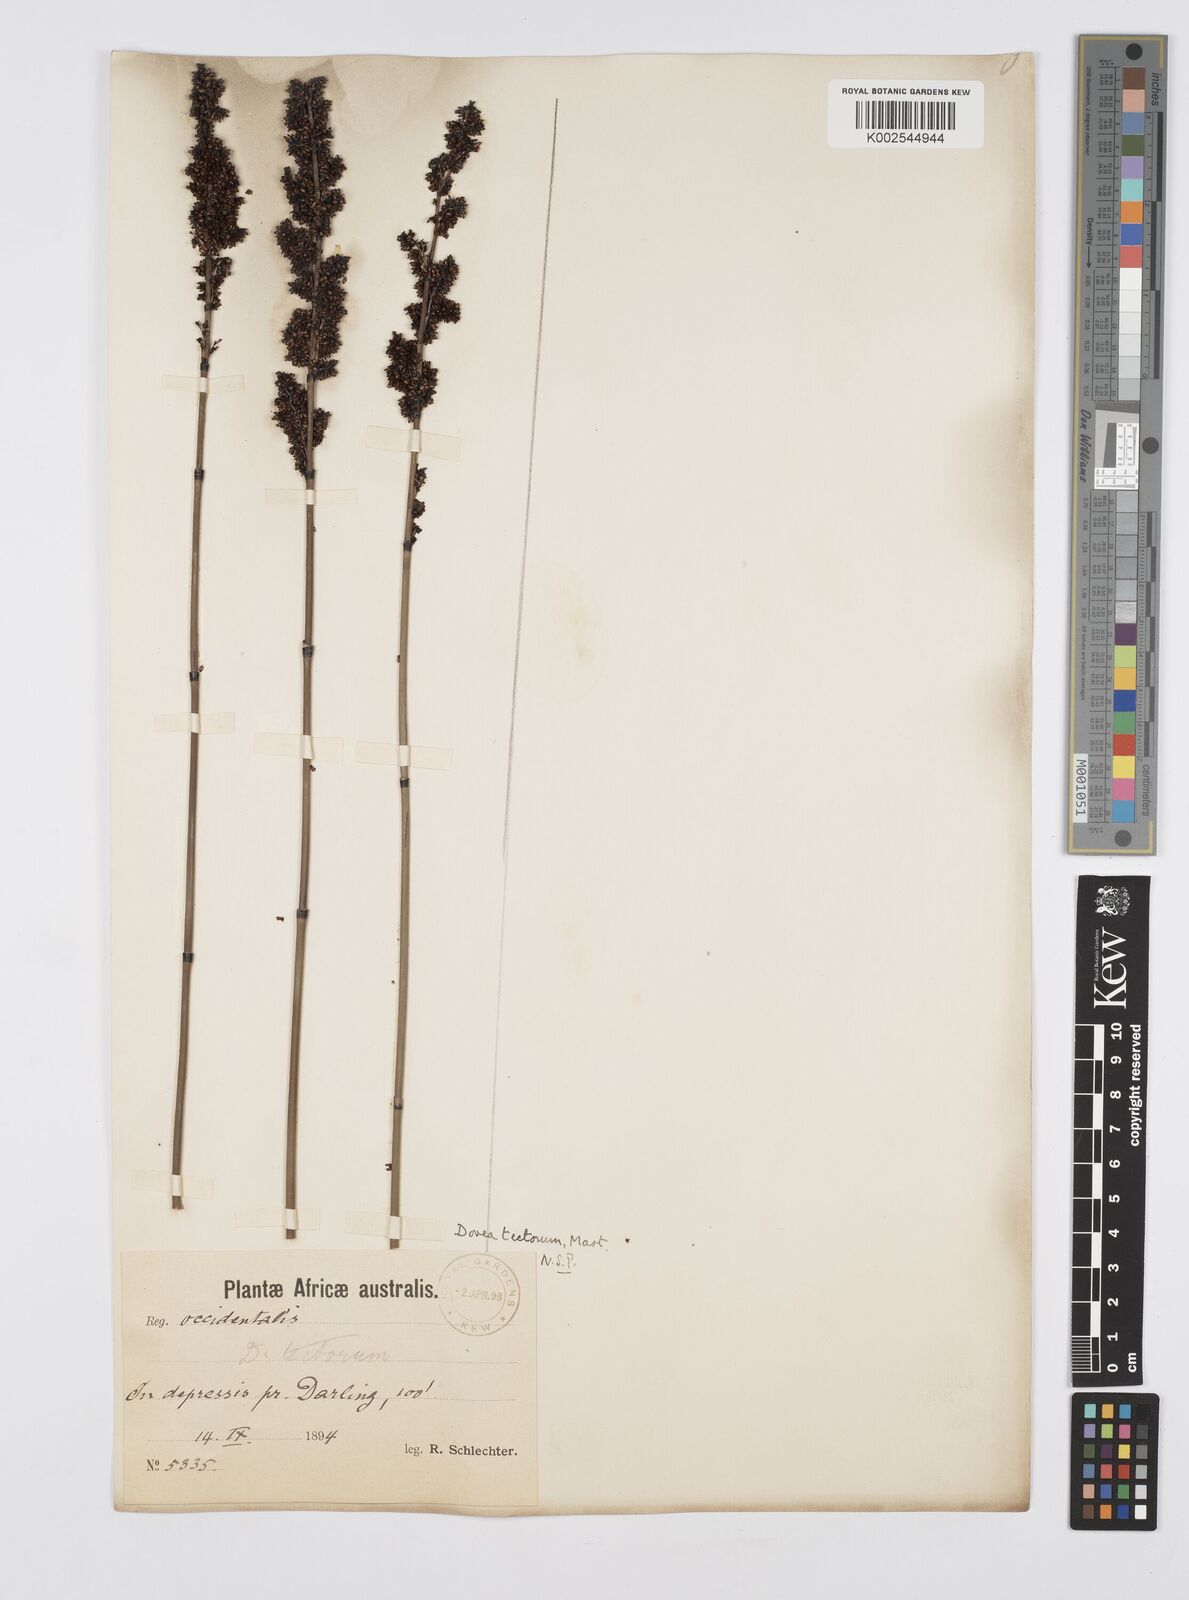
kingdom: Plantae
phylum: Tracheophyta
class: Liliopsida
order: Poales
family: Restionaceae
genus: Elegia
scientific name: Elegia tectorum
